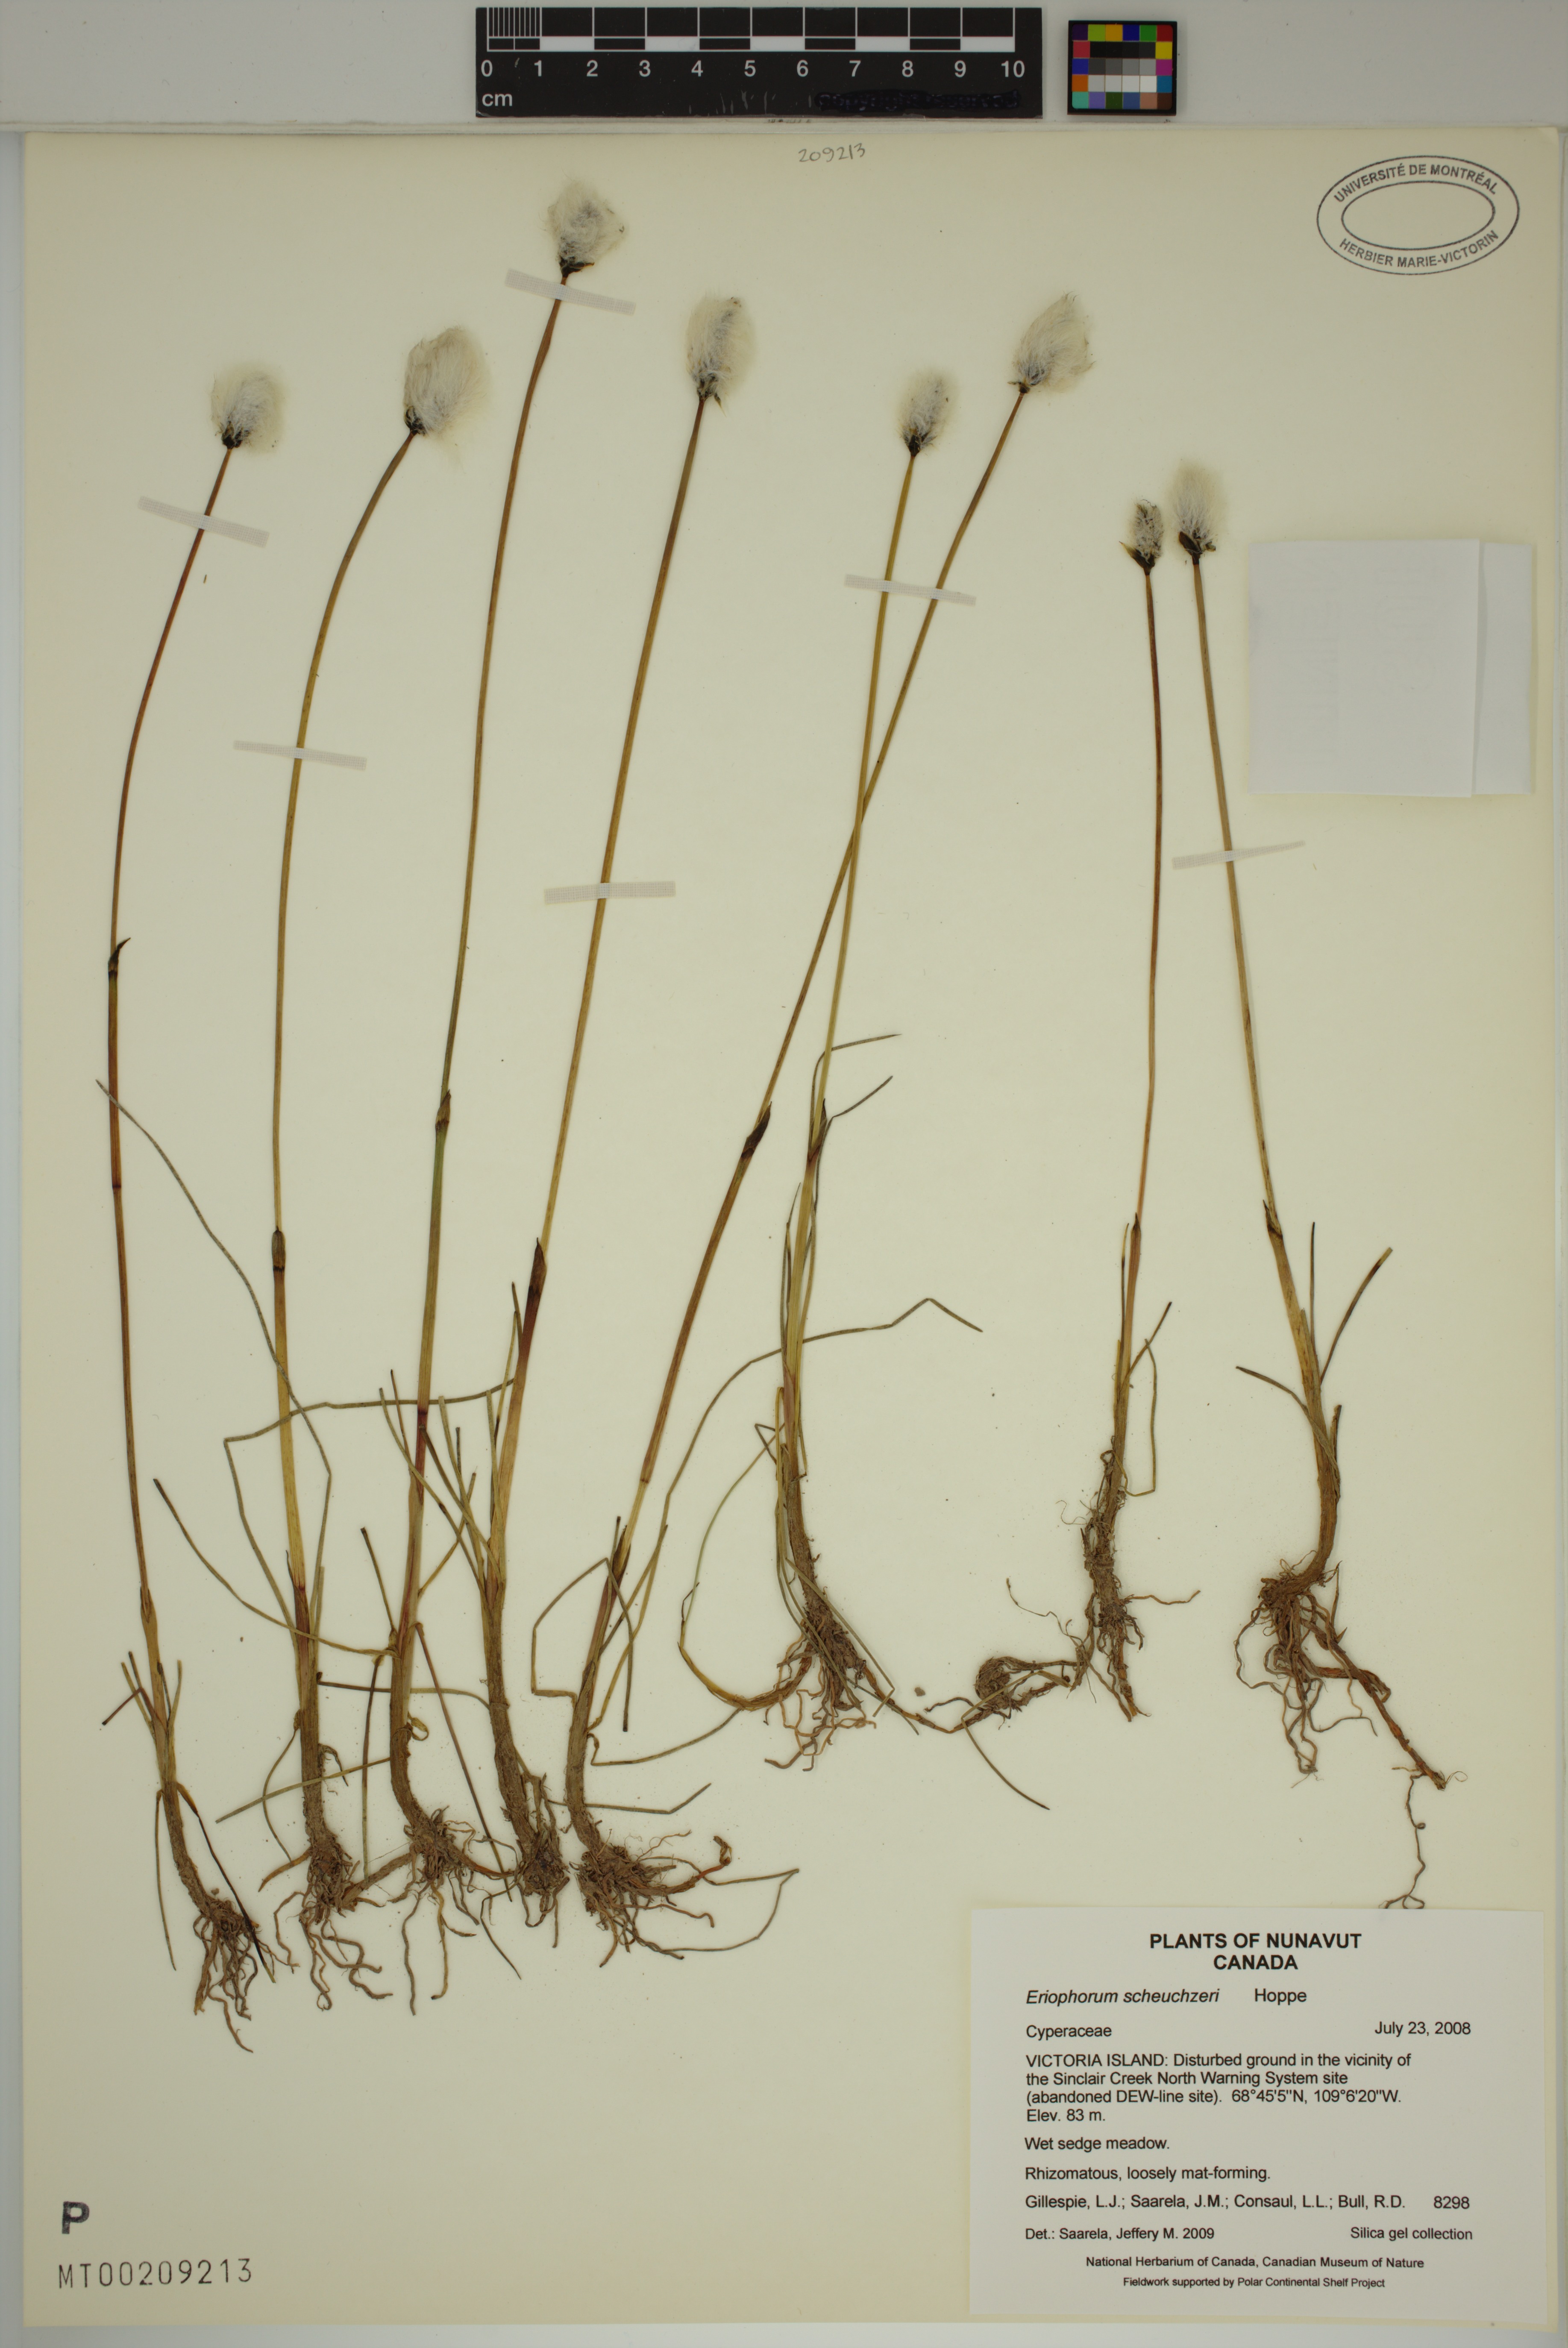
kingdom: Plantae
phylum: Tracheophyta
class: Liliopsida
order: Poales
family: Cyperaceae
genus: Eriophorum
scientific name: Eriophorum scheuchzeri
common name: Scheuchzer's cottongrass
